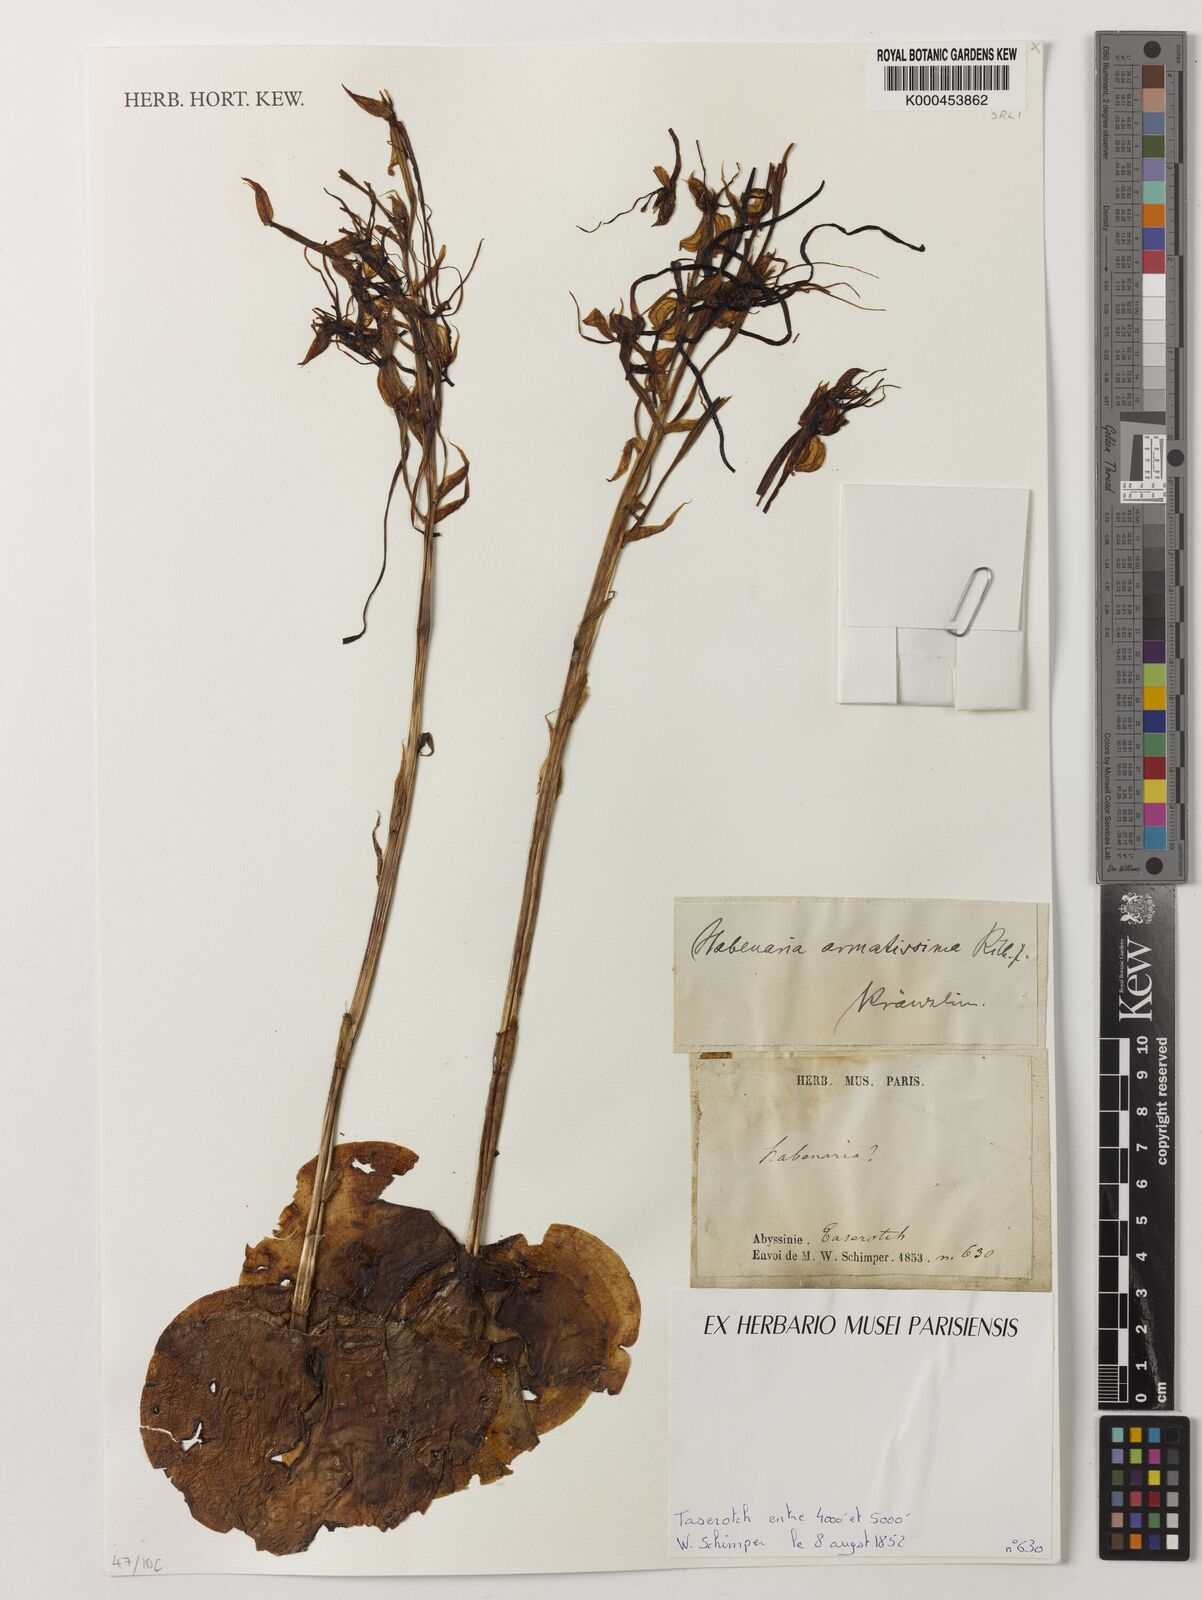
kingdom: Plantae
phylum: Tracheophyta
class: Liliopsida
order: Asparagales
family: Orchidaceae
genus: Habenaria
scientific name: Habenaria armatissima
